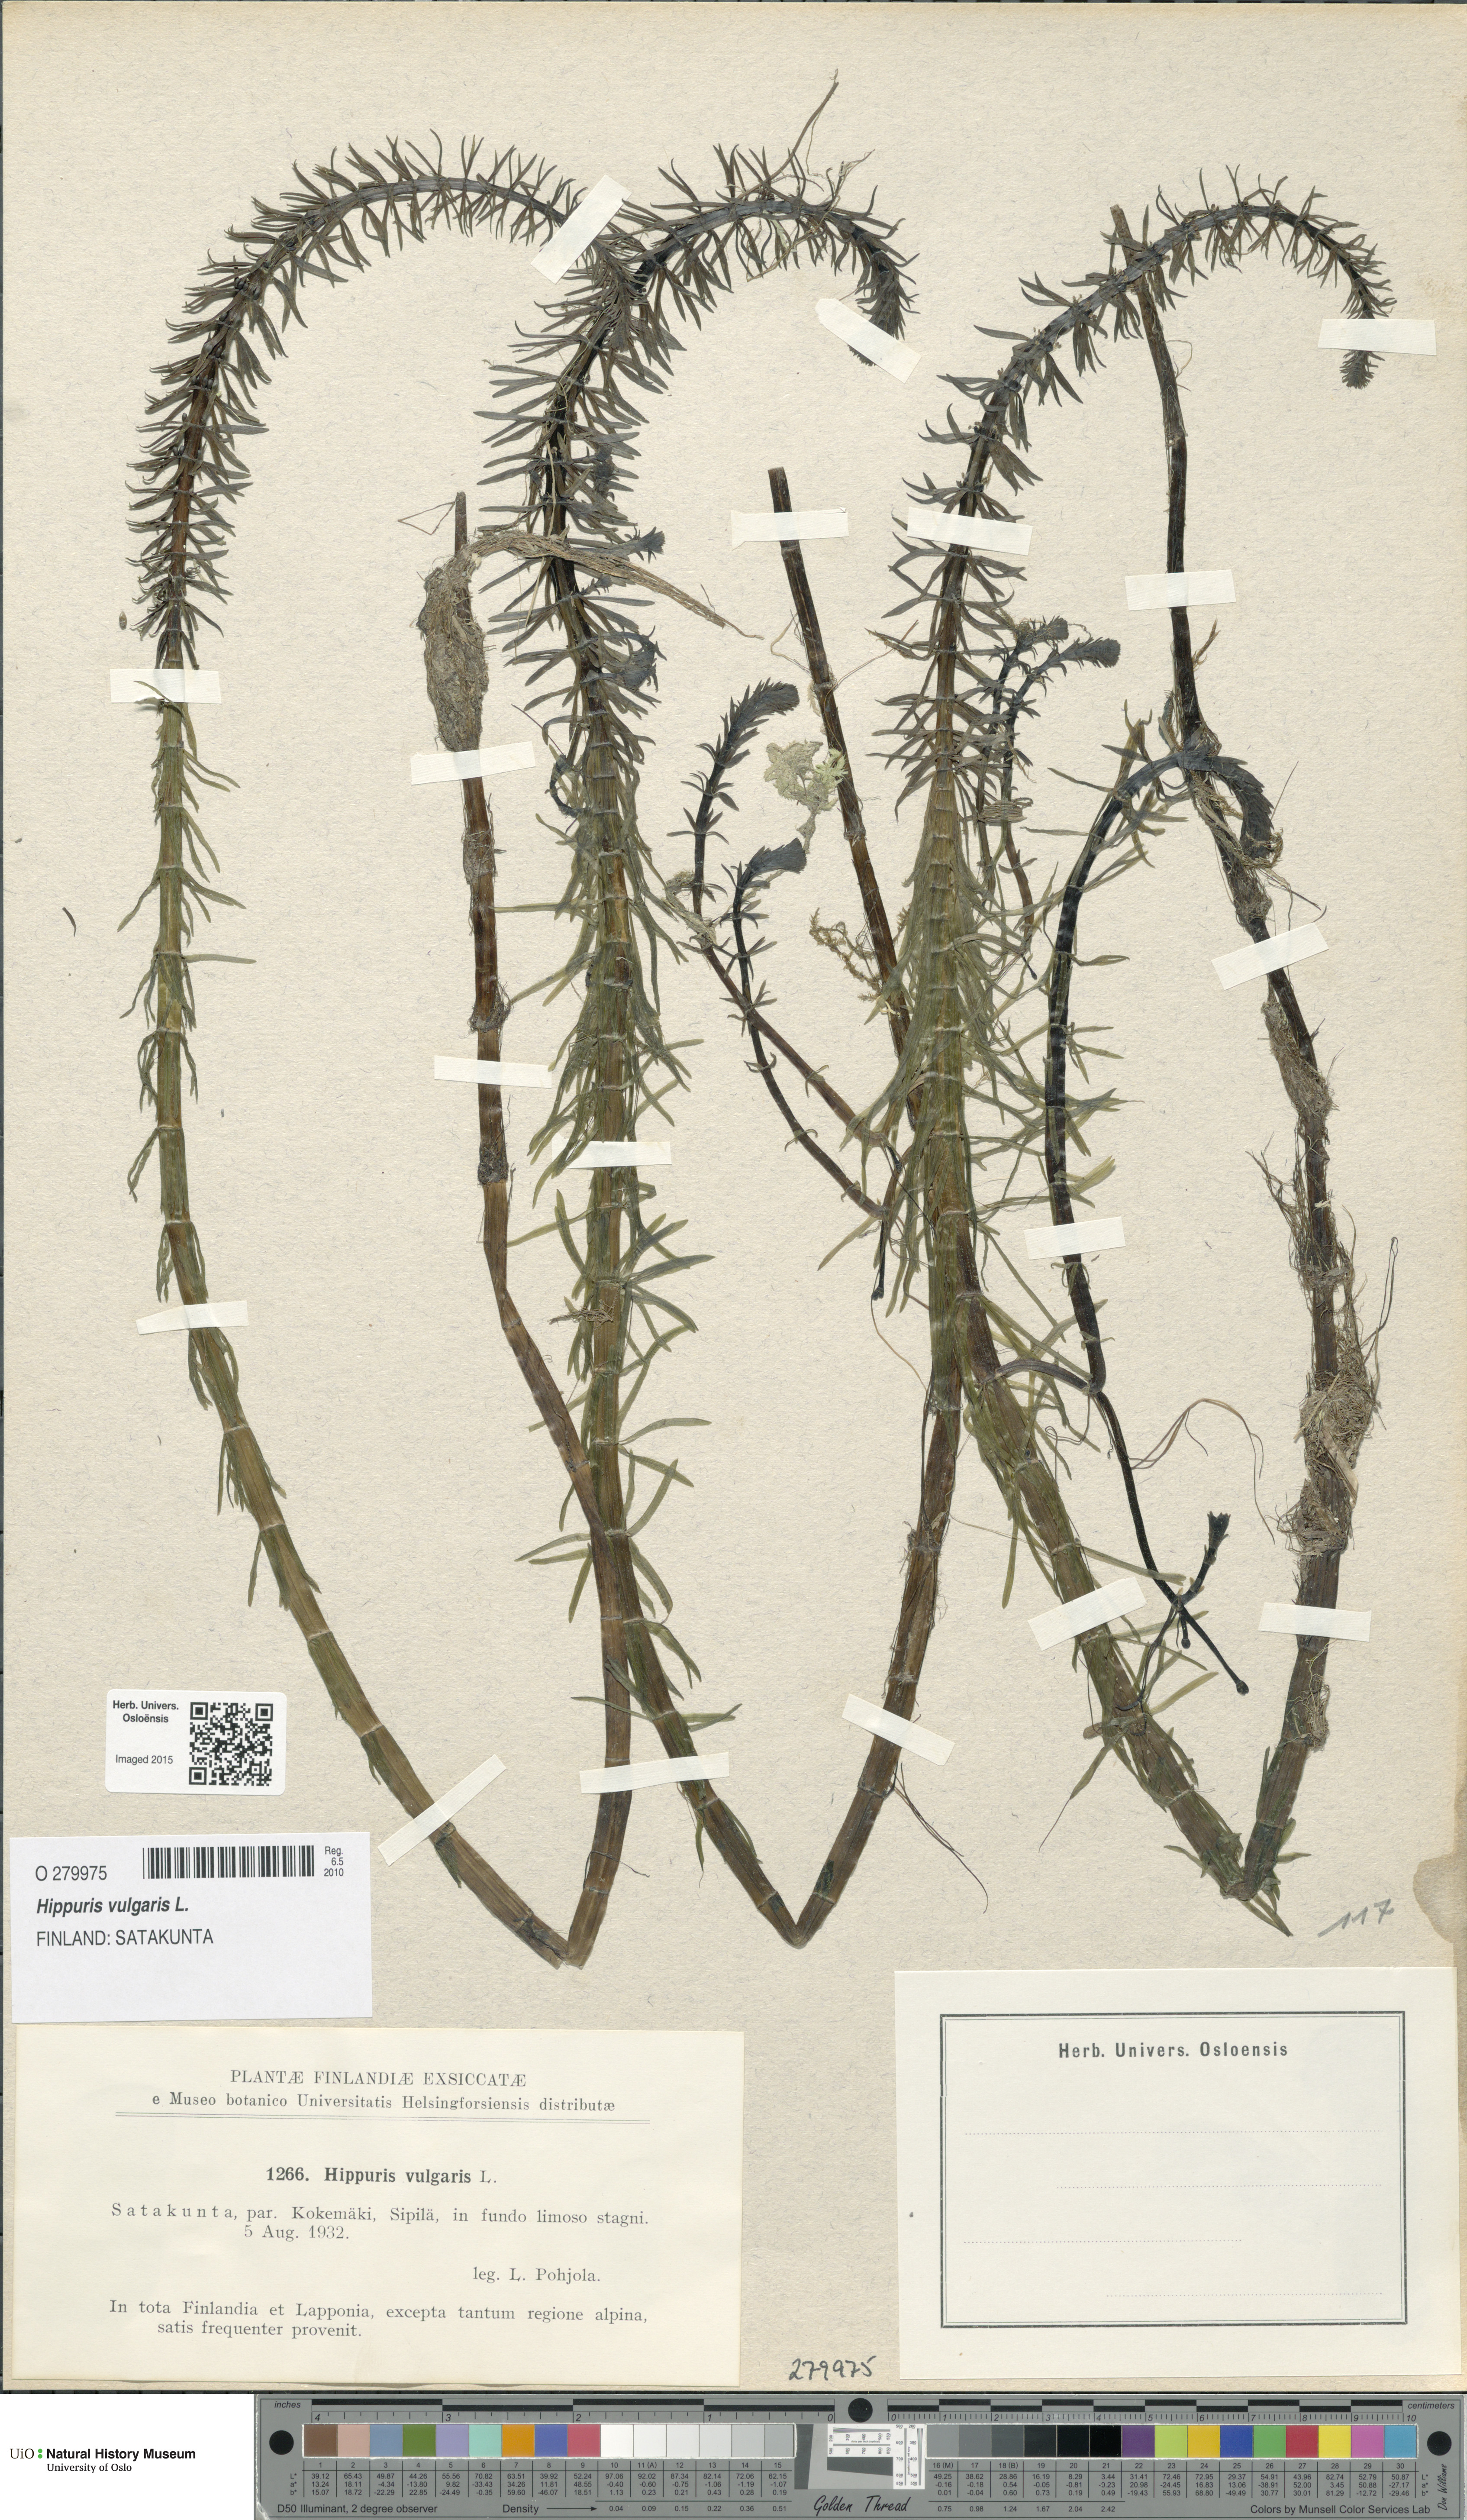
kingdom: Plantae
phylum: Tracheophyta
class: Magnoliopsida
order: Lamiales
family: Plantaginaceae
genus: Hippuris
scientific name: Hippuris vulgaris
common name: Mare's-tail
